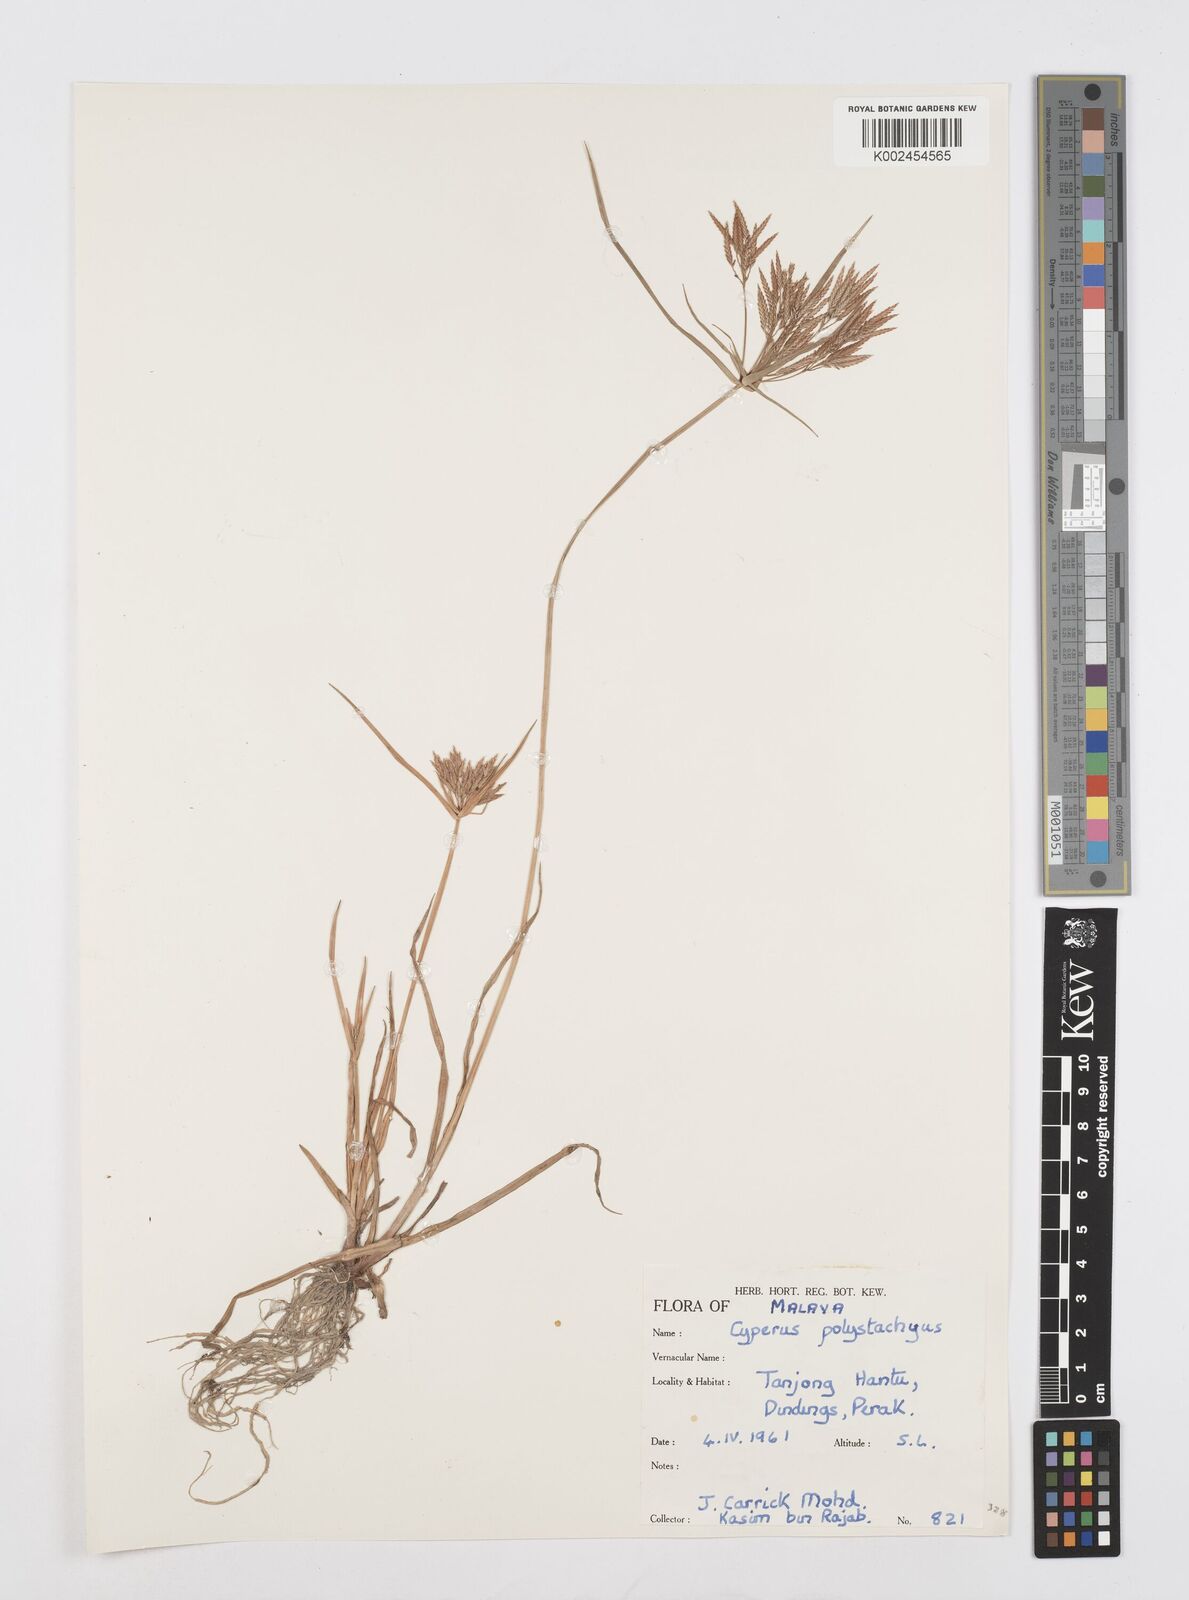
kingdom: Plantae
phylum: Tracheophyta
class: Liliopsida
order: Poales
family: Cyperaceae
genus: Cyperus
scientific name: Cyperus polystachyos
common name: Bunchy flat sedge
